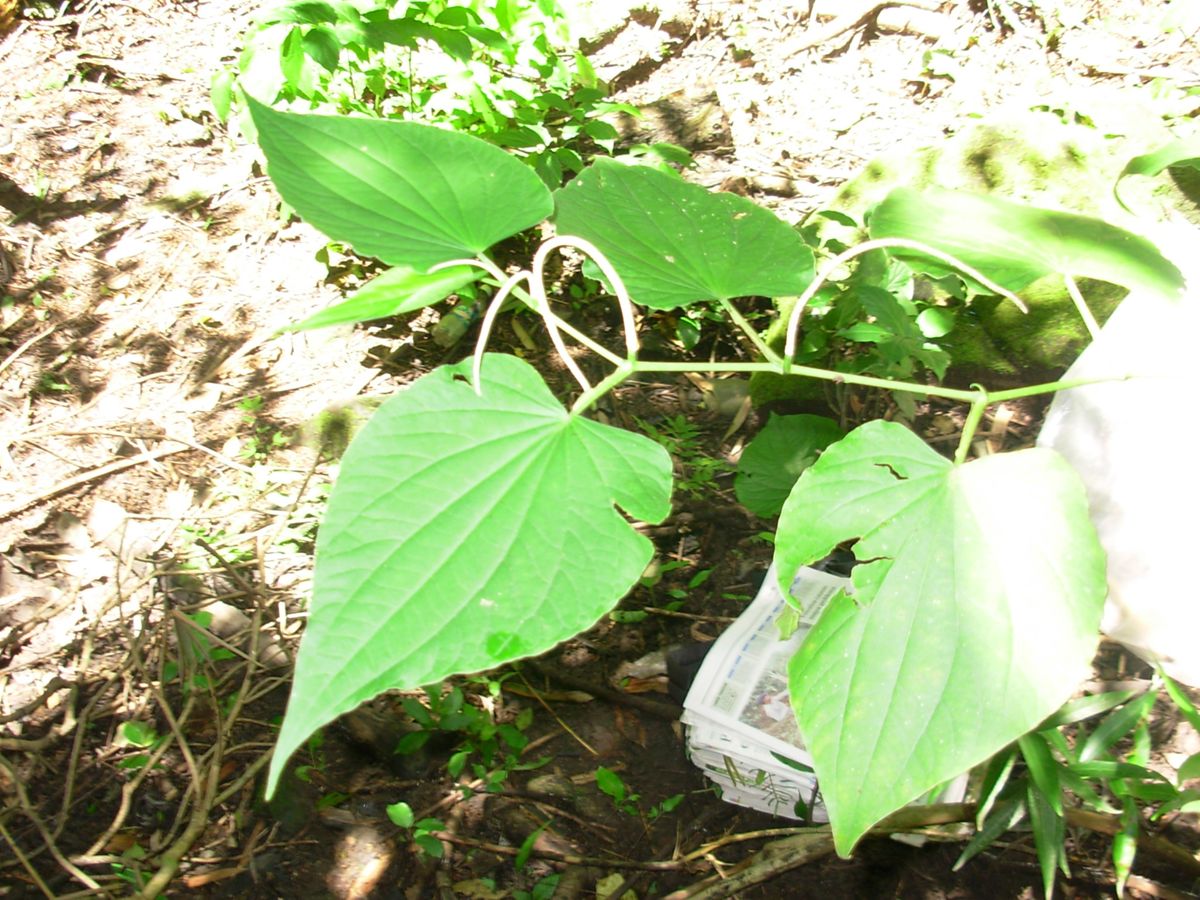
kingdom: Plantae
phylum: Tracheophyta
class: Magnoliopsida
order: Piperales
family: Piperaceae
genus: Piper
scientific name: Piper marginatum
